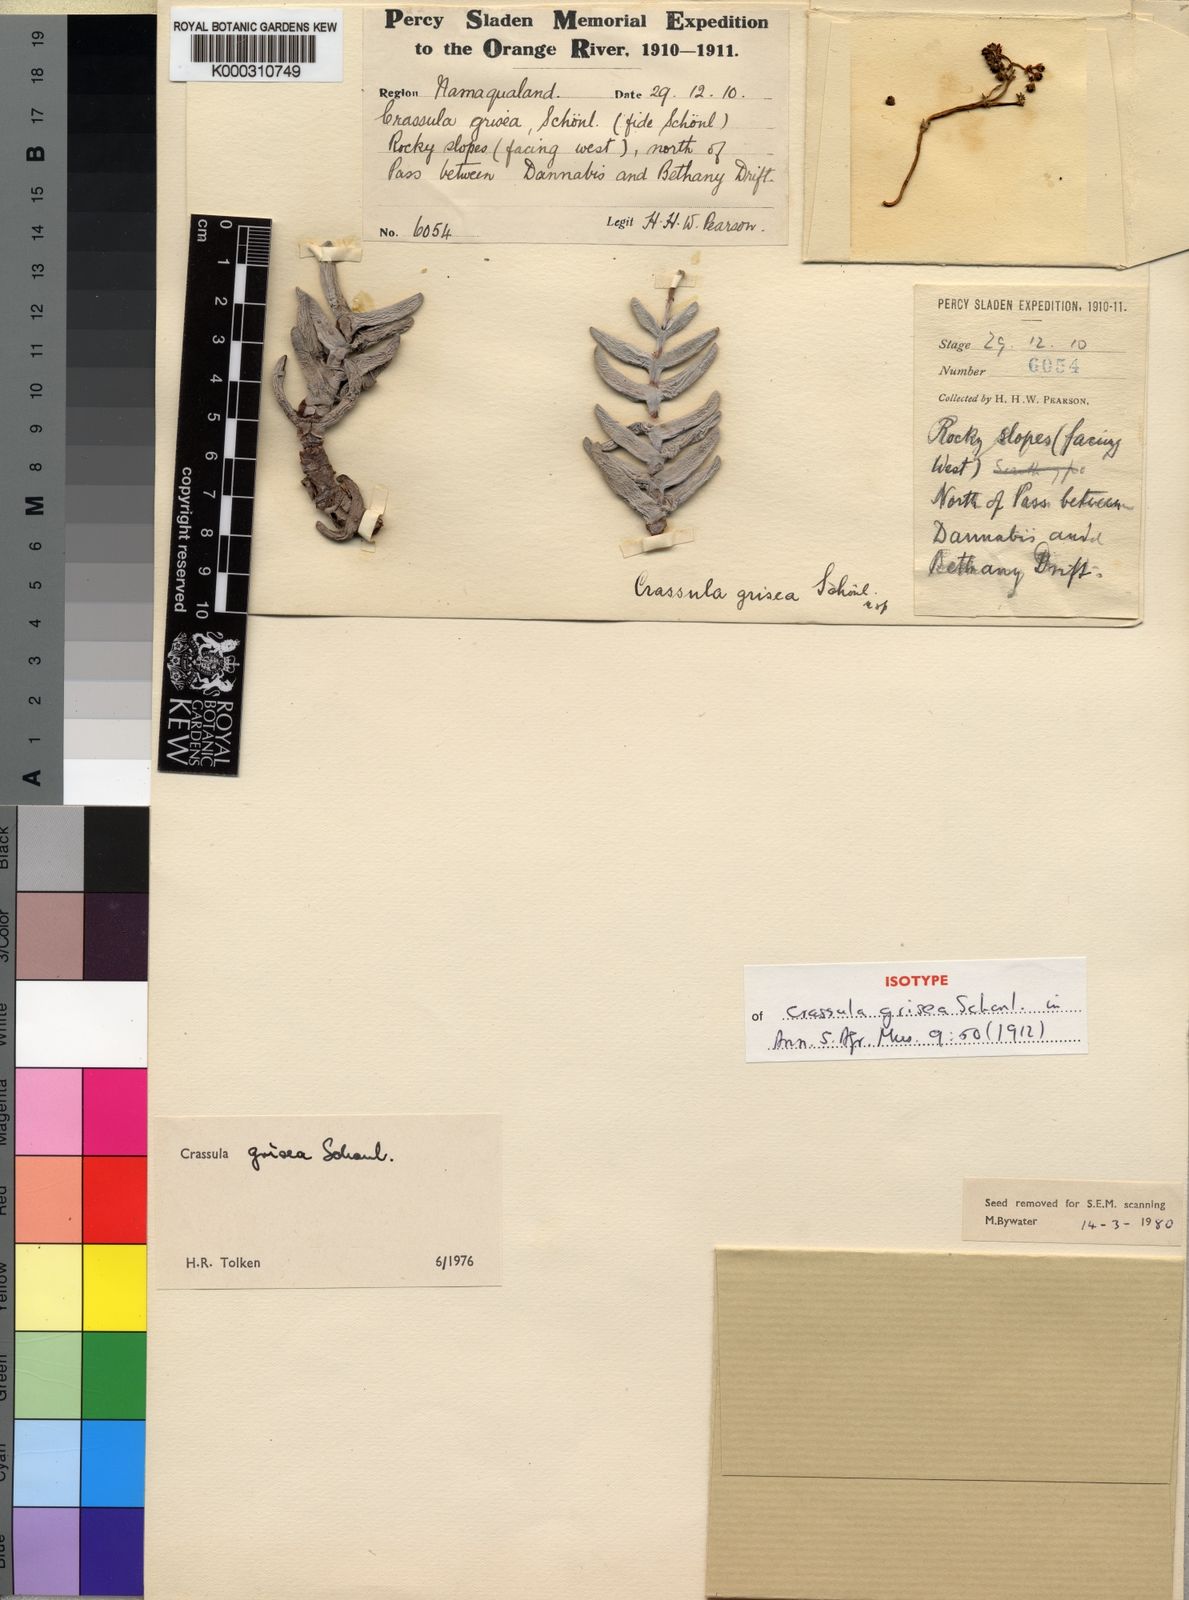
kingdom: Plantae
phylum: Tracheophyta
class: Magnoliopsida
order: Saxifragales
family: Crassulaceae
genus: Crassula
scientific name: Crassula
